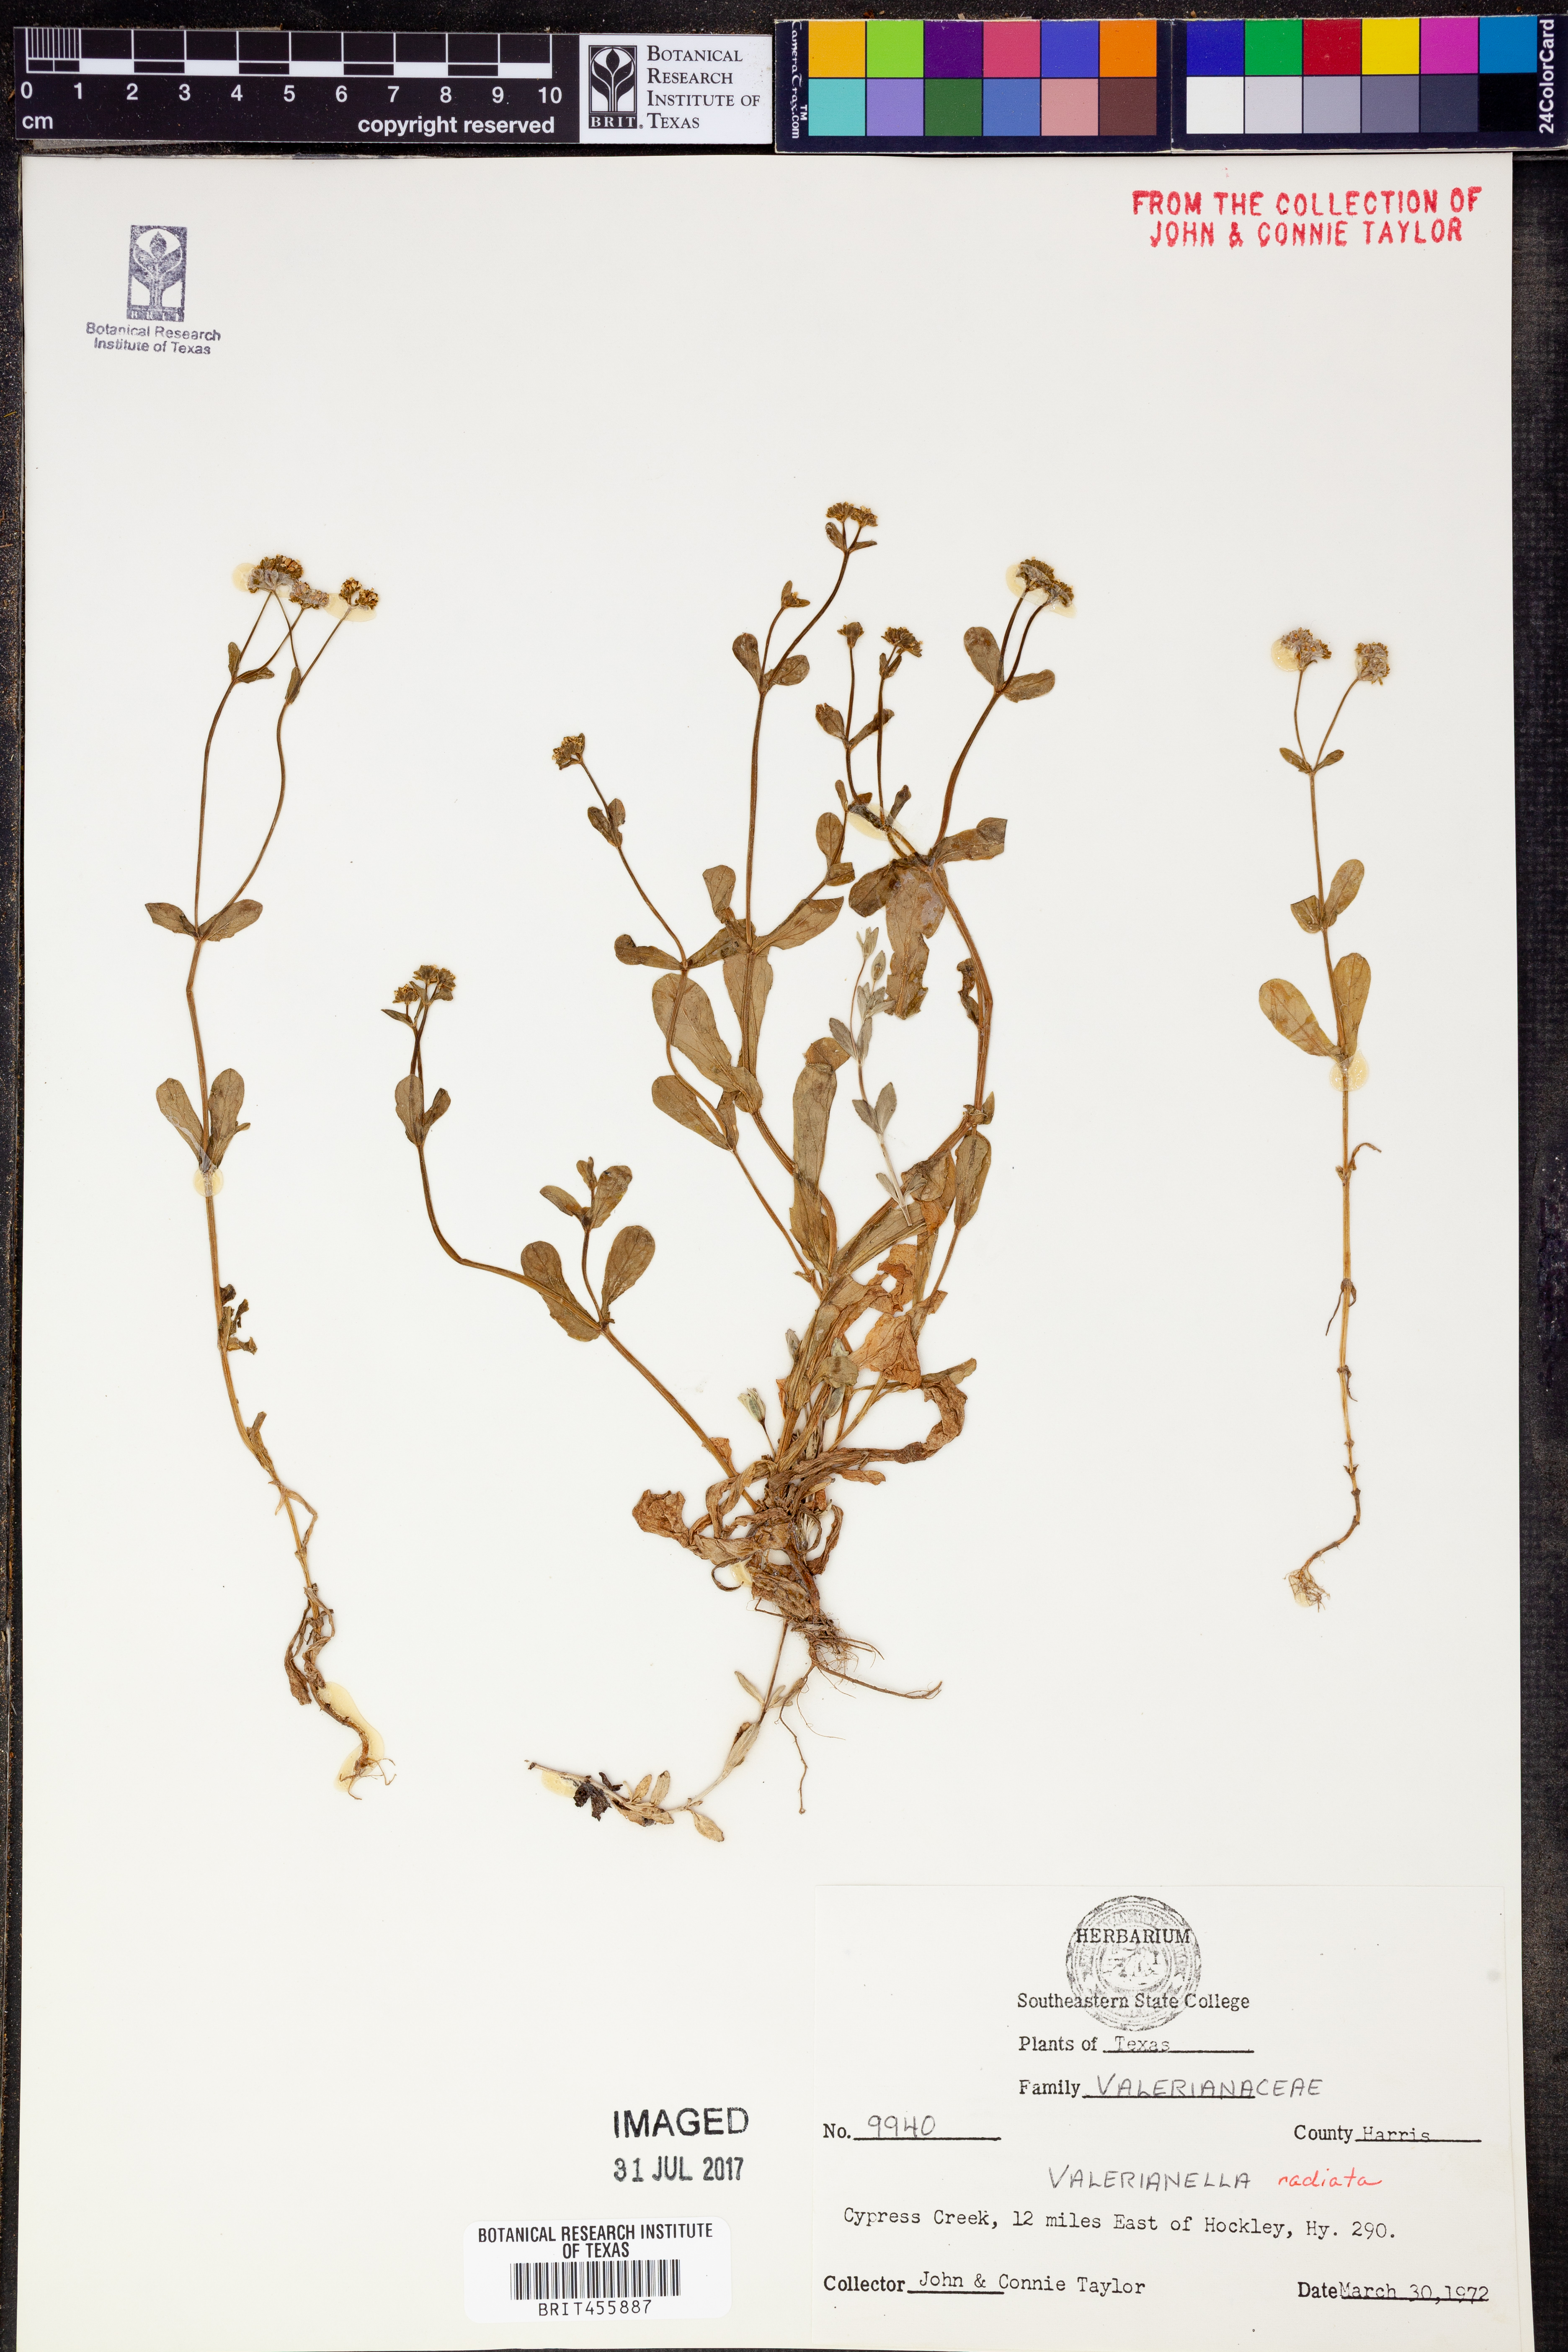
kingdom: Plantae
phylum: Tracheophyta
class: Magnoliopsida
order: Dipsacales
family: Caprifoliaceae
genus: Valerianella
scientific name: Valerianella radiata
